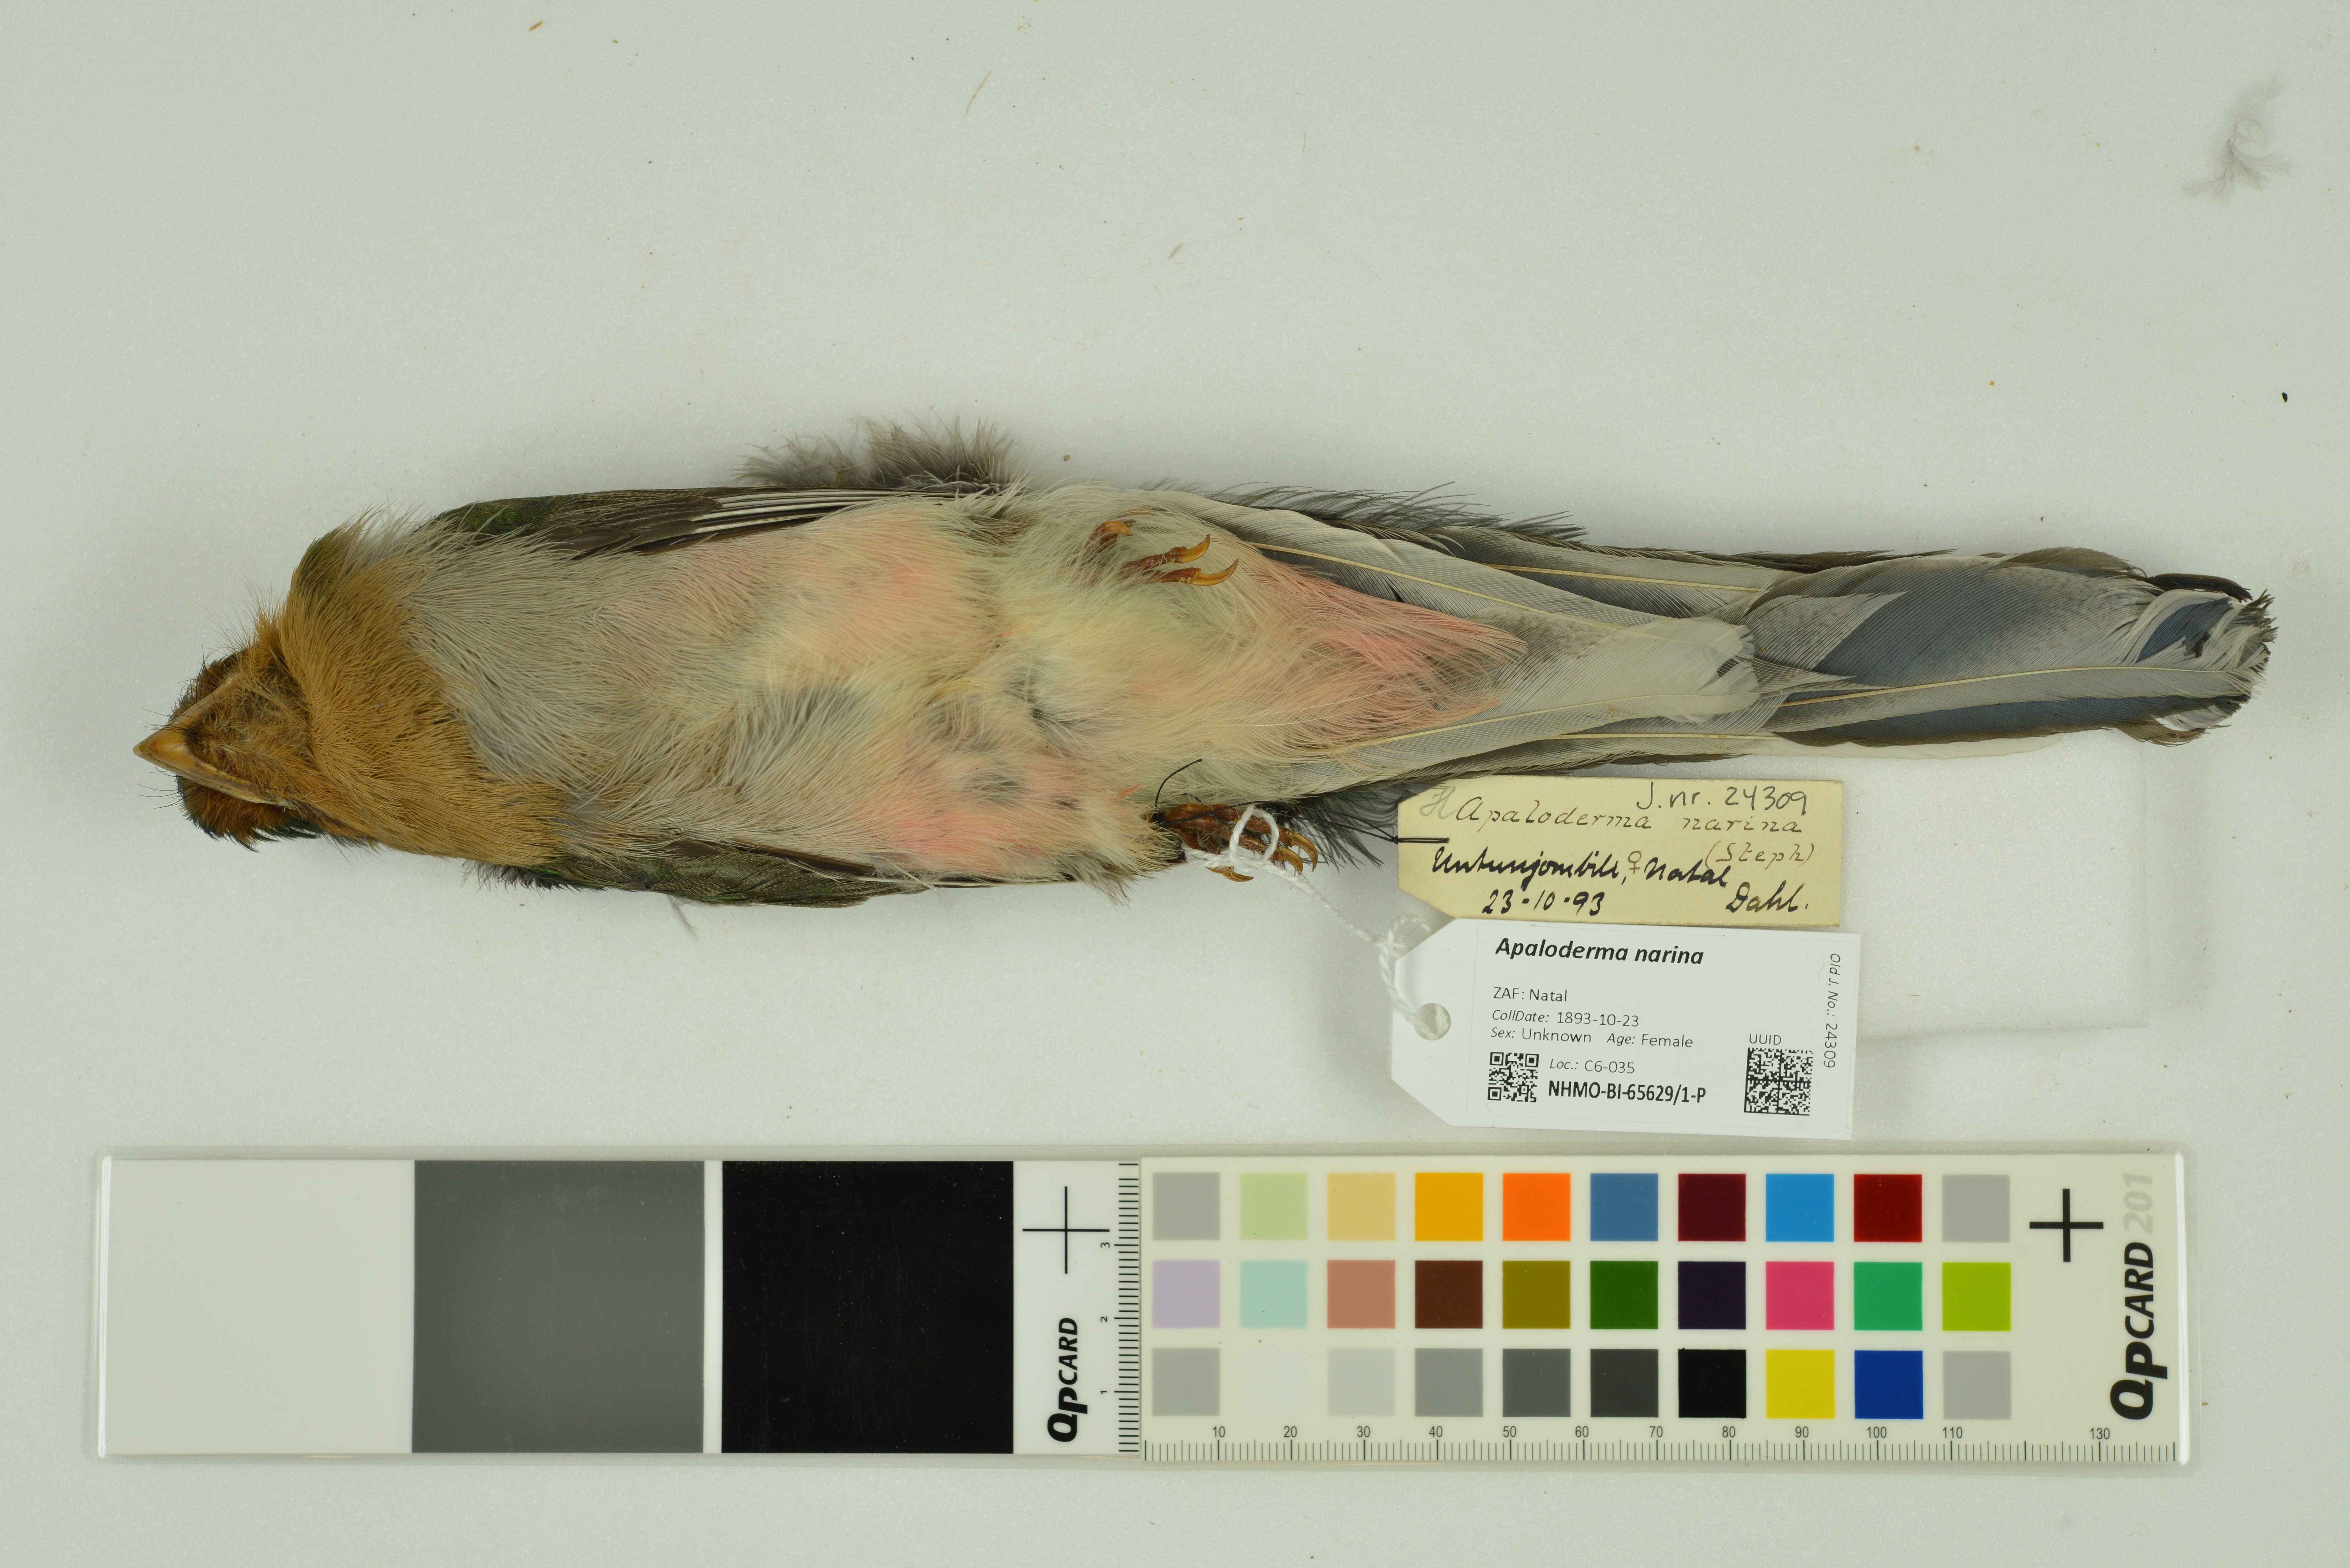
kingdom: Animalia
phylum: Chordata
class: Aves
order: Trogoniformes
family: Trogonidae
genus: Apaloderma
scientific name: Apaloderma narina
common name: Narina trogon
